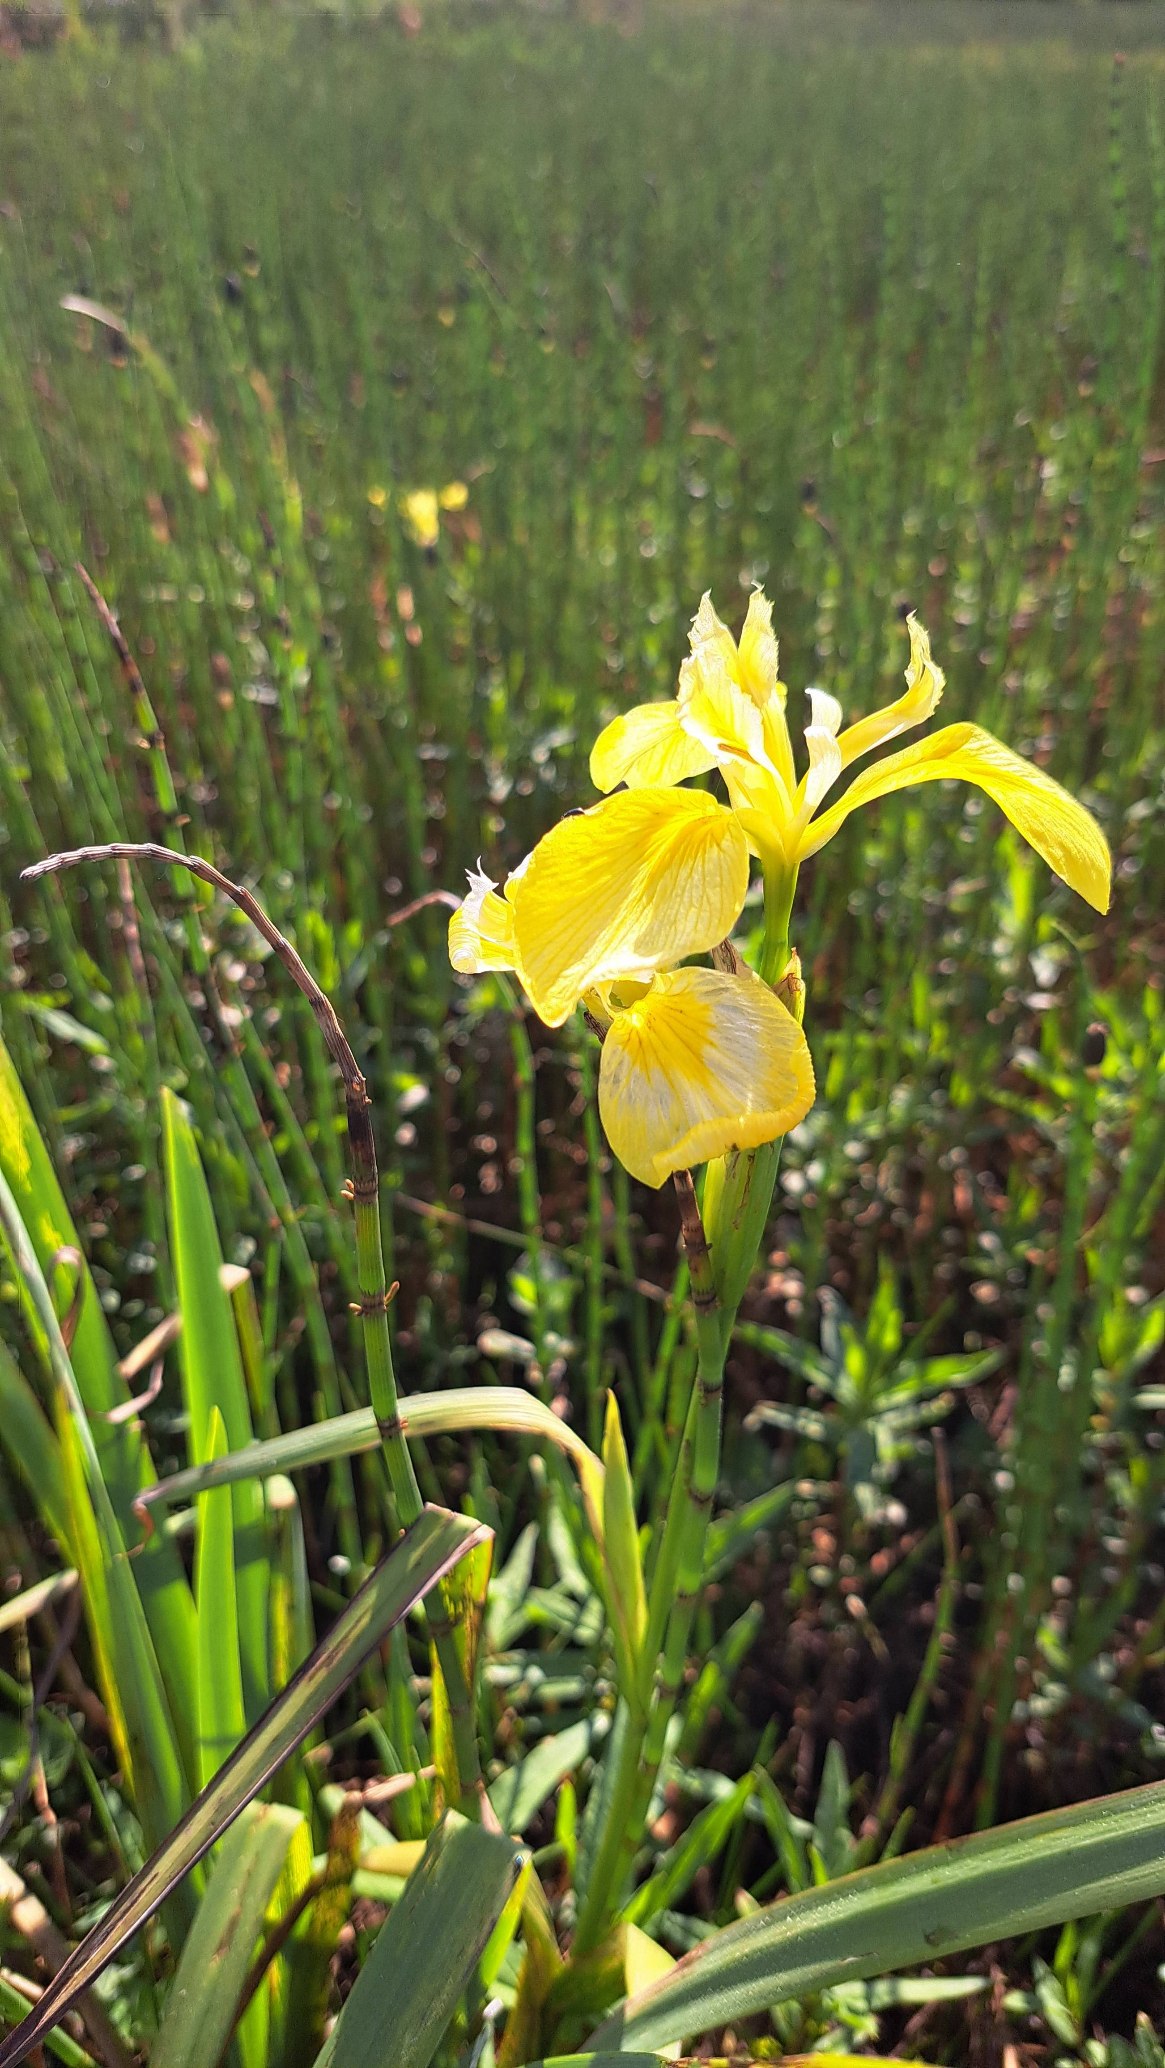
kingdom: Plantae
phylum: Tracheophyta
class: Liliopsida
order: Asparagales
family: Iridaceae
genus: Iris
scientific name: Iris pseudacorus
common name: Gul iris
